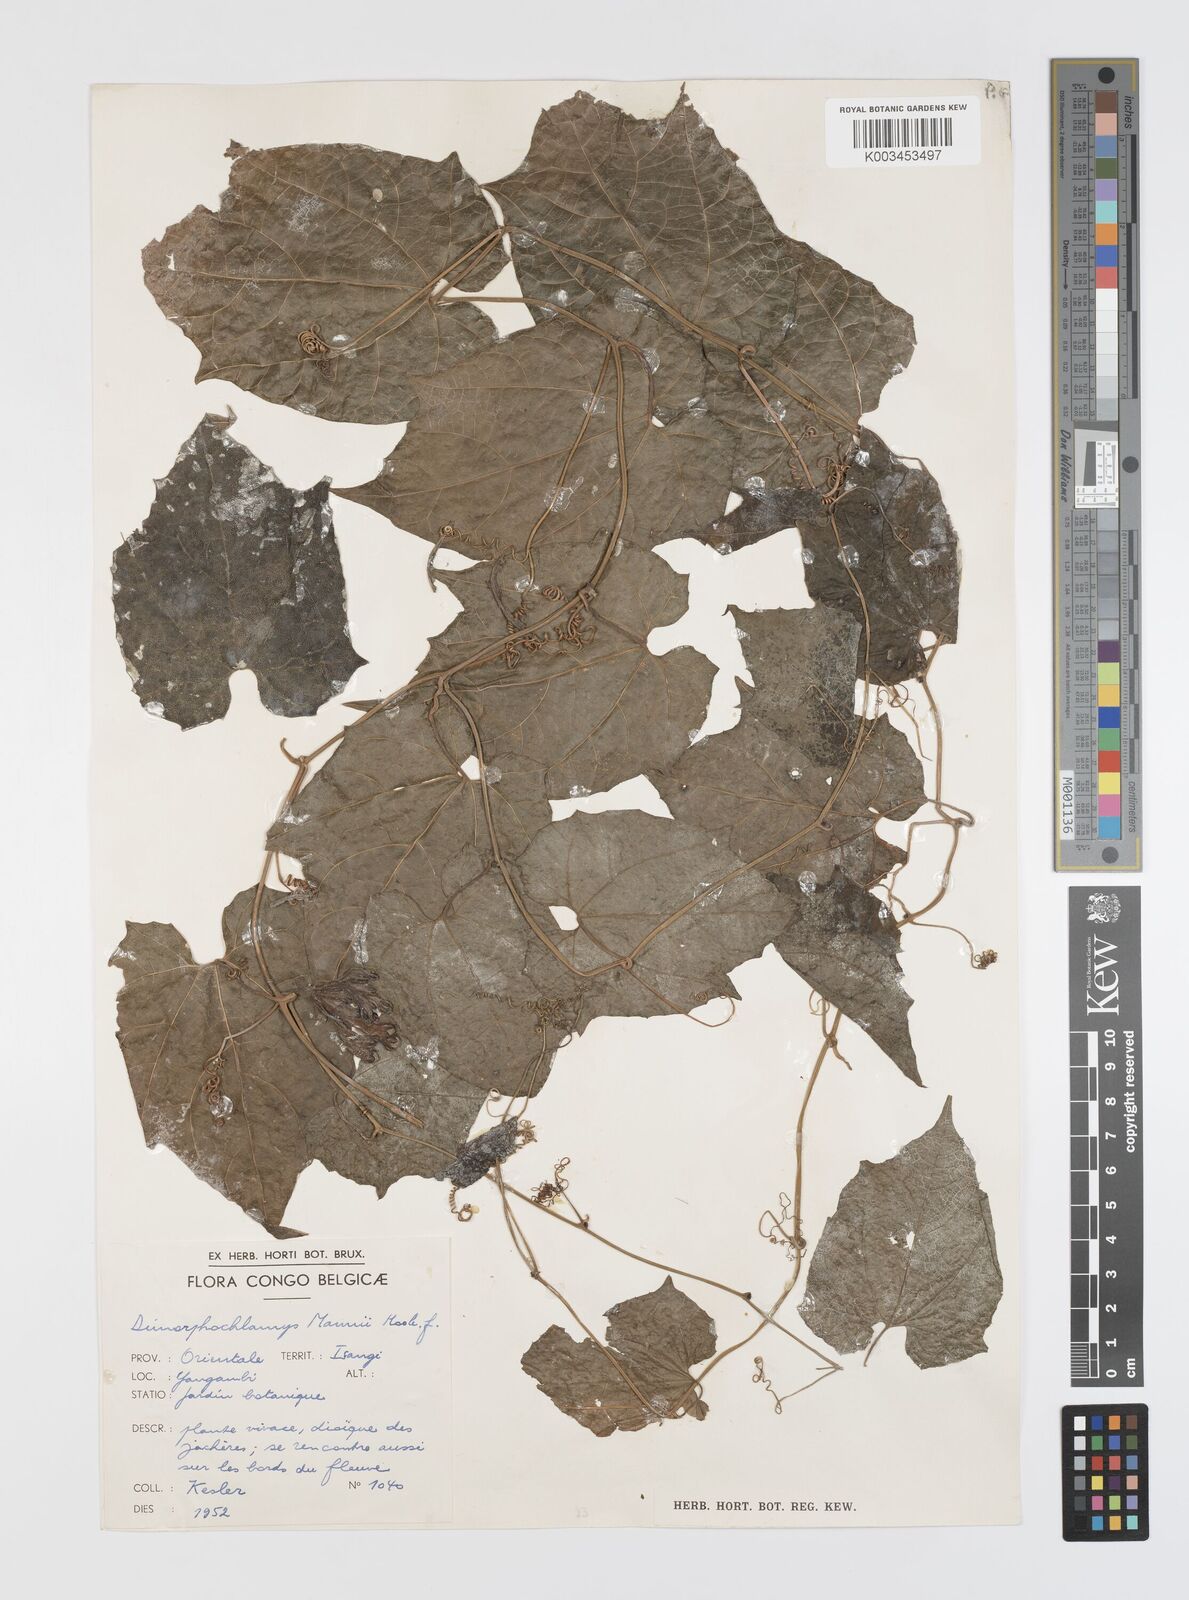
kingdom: Plantae
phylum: Tracheophyta
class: Magnoliopsida
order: Cucurbitales
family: Cucurbitaceae
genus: Momordica
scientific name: Momordica cabrae
